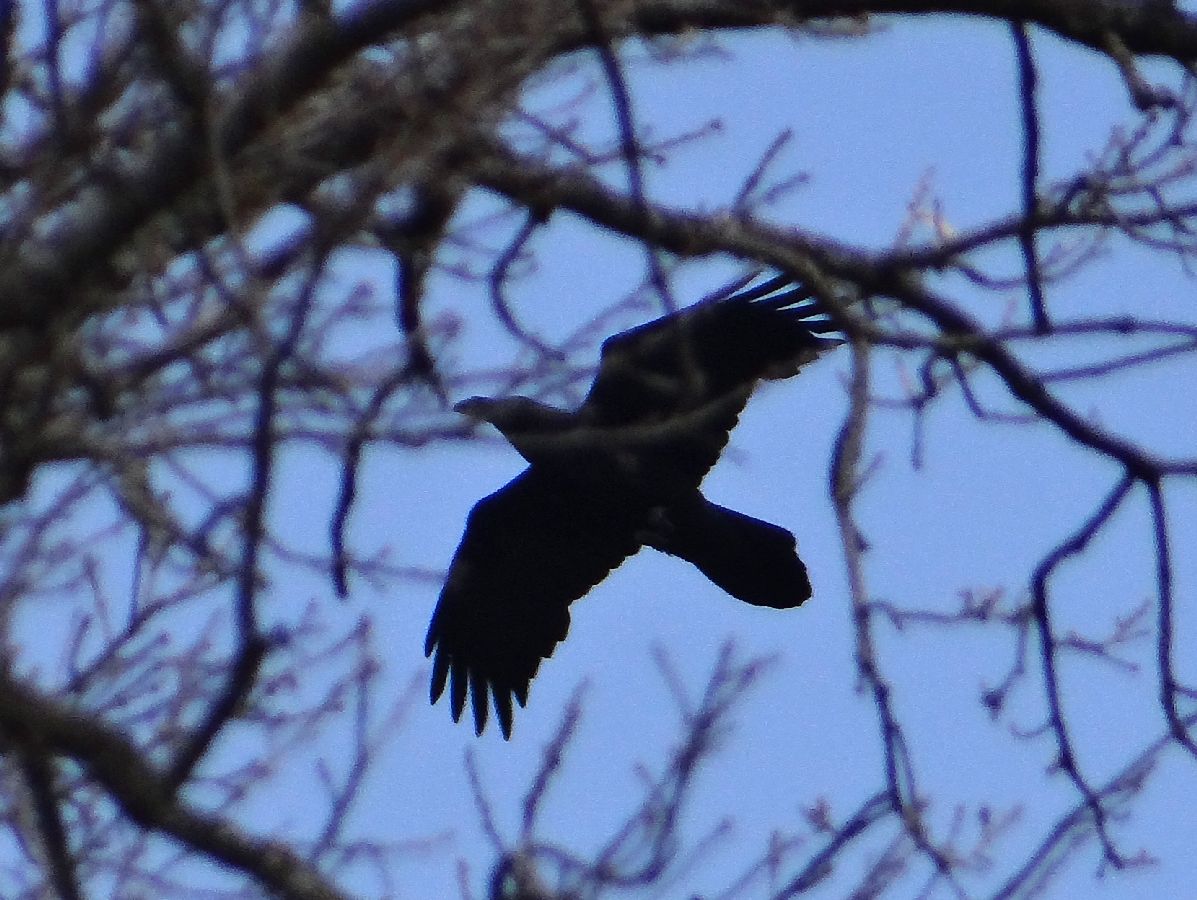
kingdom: Animalia
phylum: Chordata
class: Aves
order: Passeriformes
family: Corvidae
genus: Corvus
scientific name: Corvus corax
